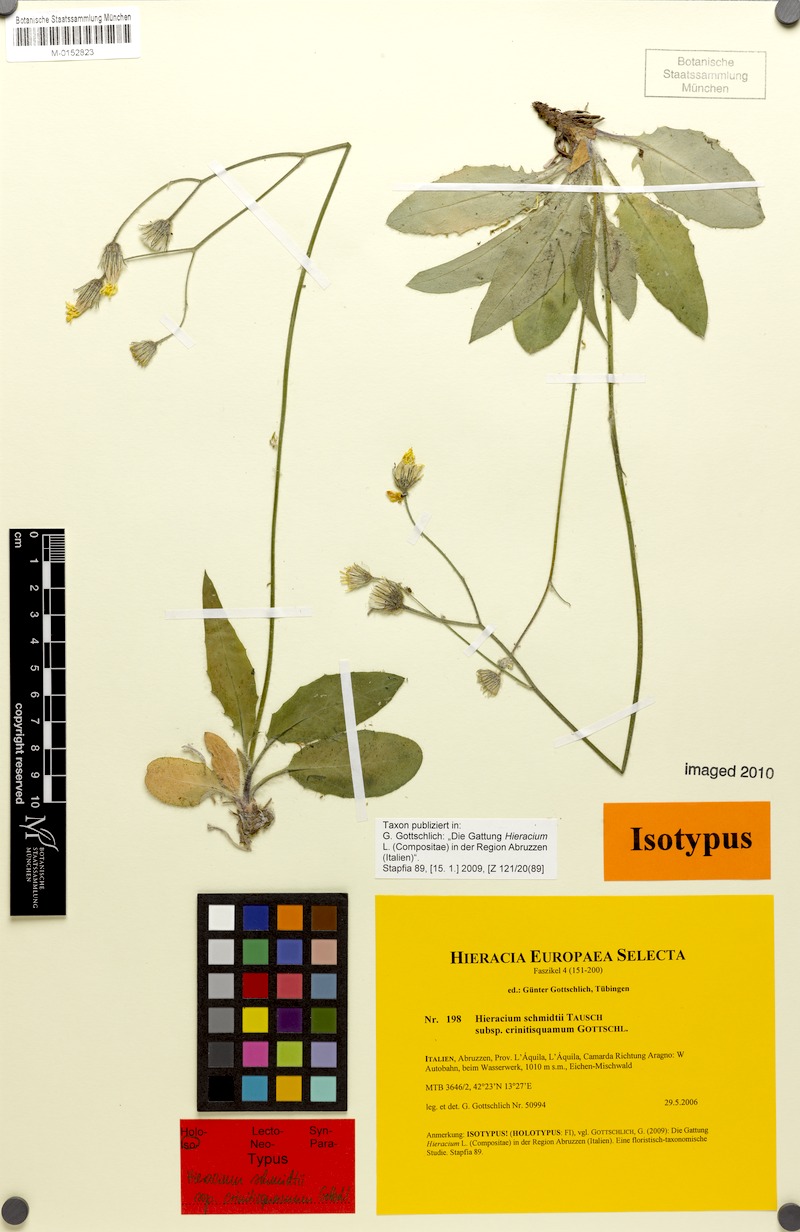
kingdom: Plantae
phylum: Tracheophyta
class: Magnoliopsida
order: Asterales
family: Asteraceae
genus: Hieracium
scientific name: Hieracium schmidtii
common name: Schmidt's hawkweed
